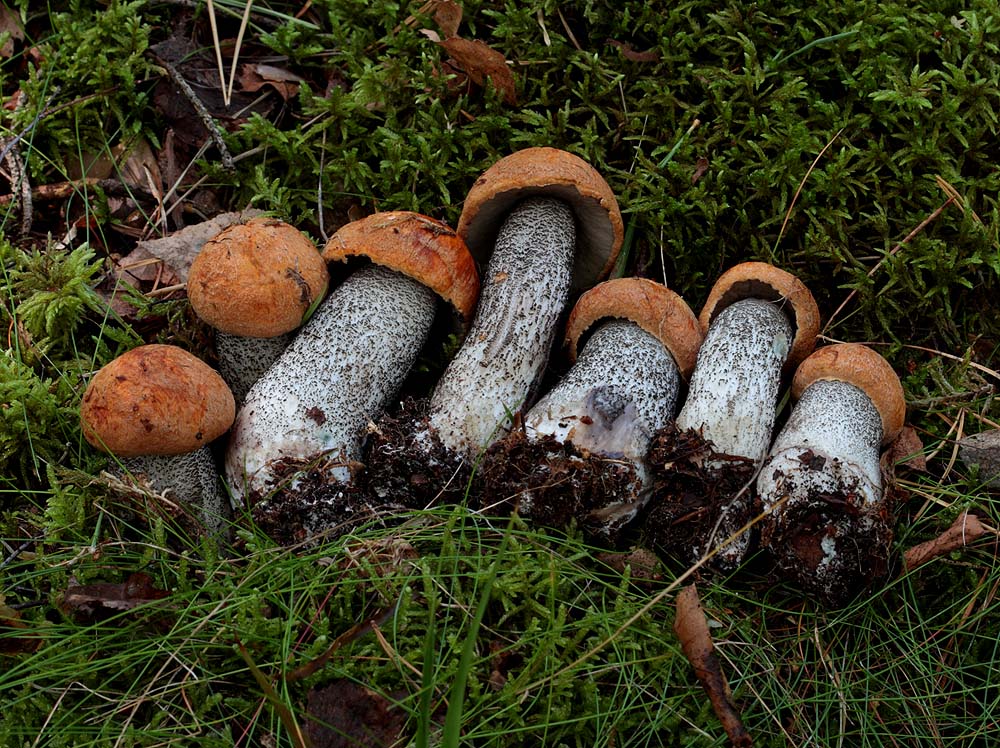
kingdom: Fungi
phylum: Basidiomycota
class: Agaricomycetes
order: Boletales
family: Boletaceae
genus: Leccinum
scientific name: Leccinum versipelle
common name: orange skælrørhat
